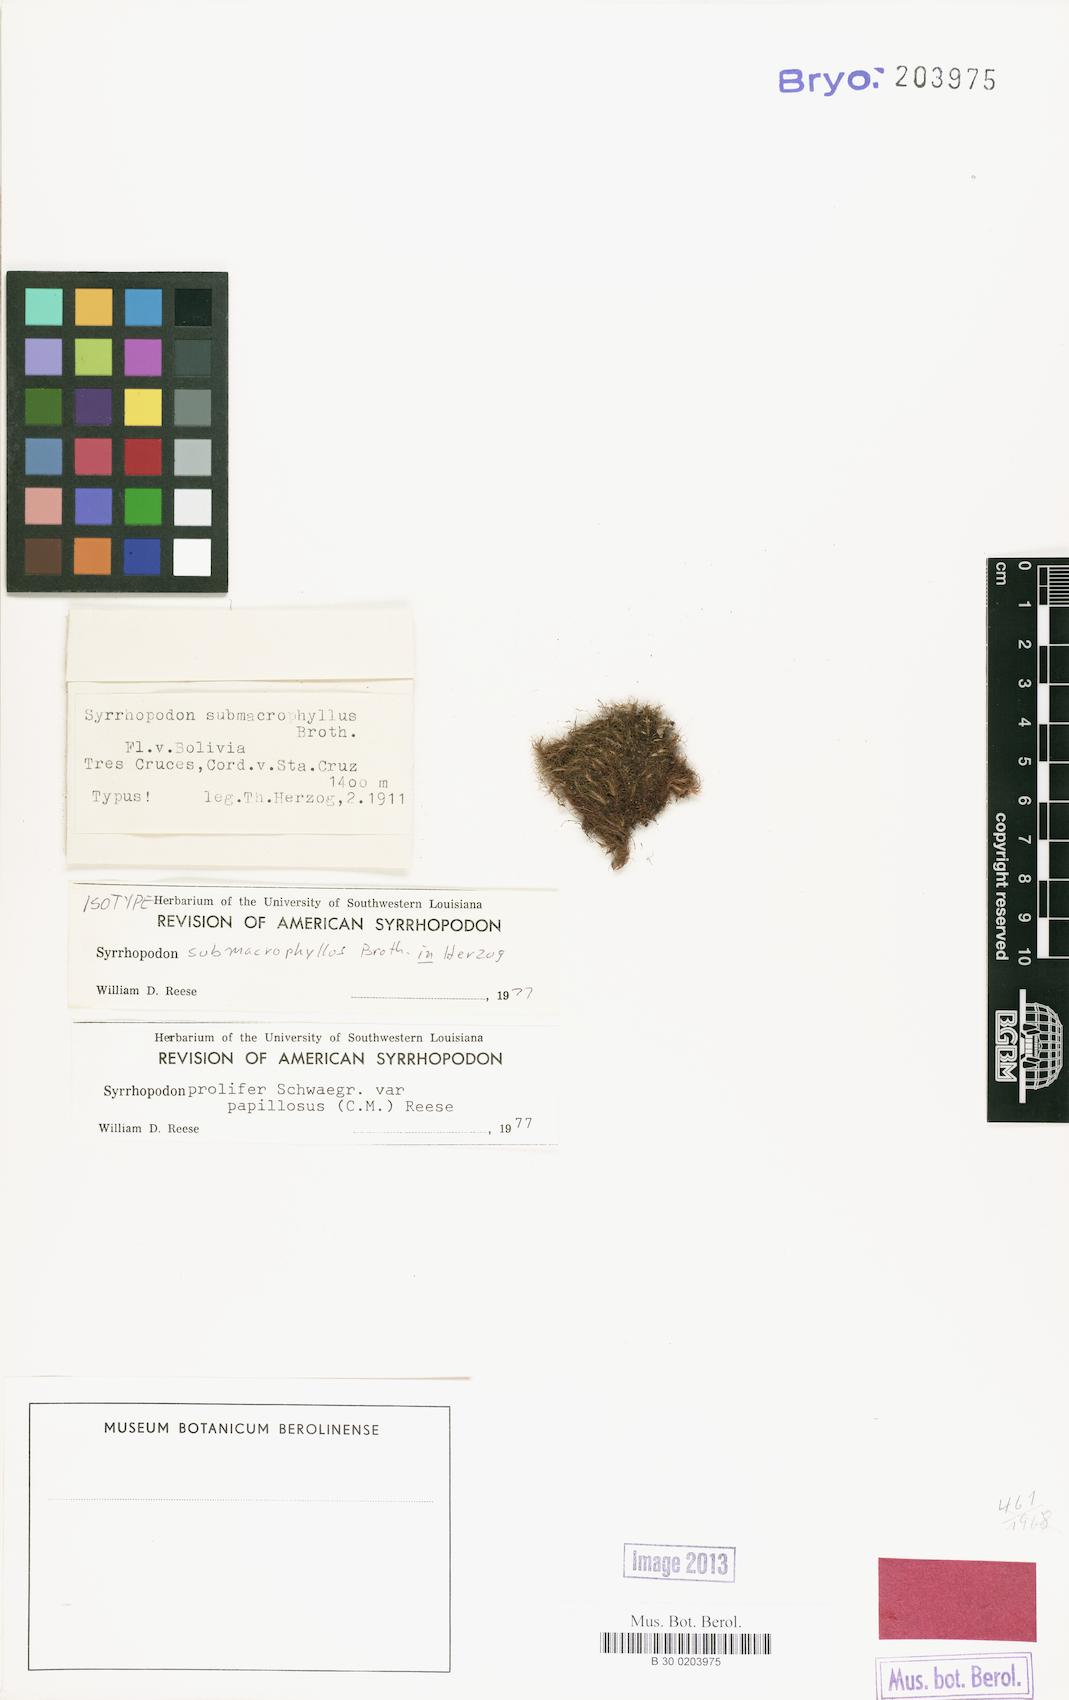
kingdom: Plantae
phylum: Bryophyta
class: Bryopsida
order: Dicranales
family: Calymperaceae
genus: Syrrhopodon
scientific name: Syrrhopodon prolifer
